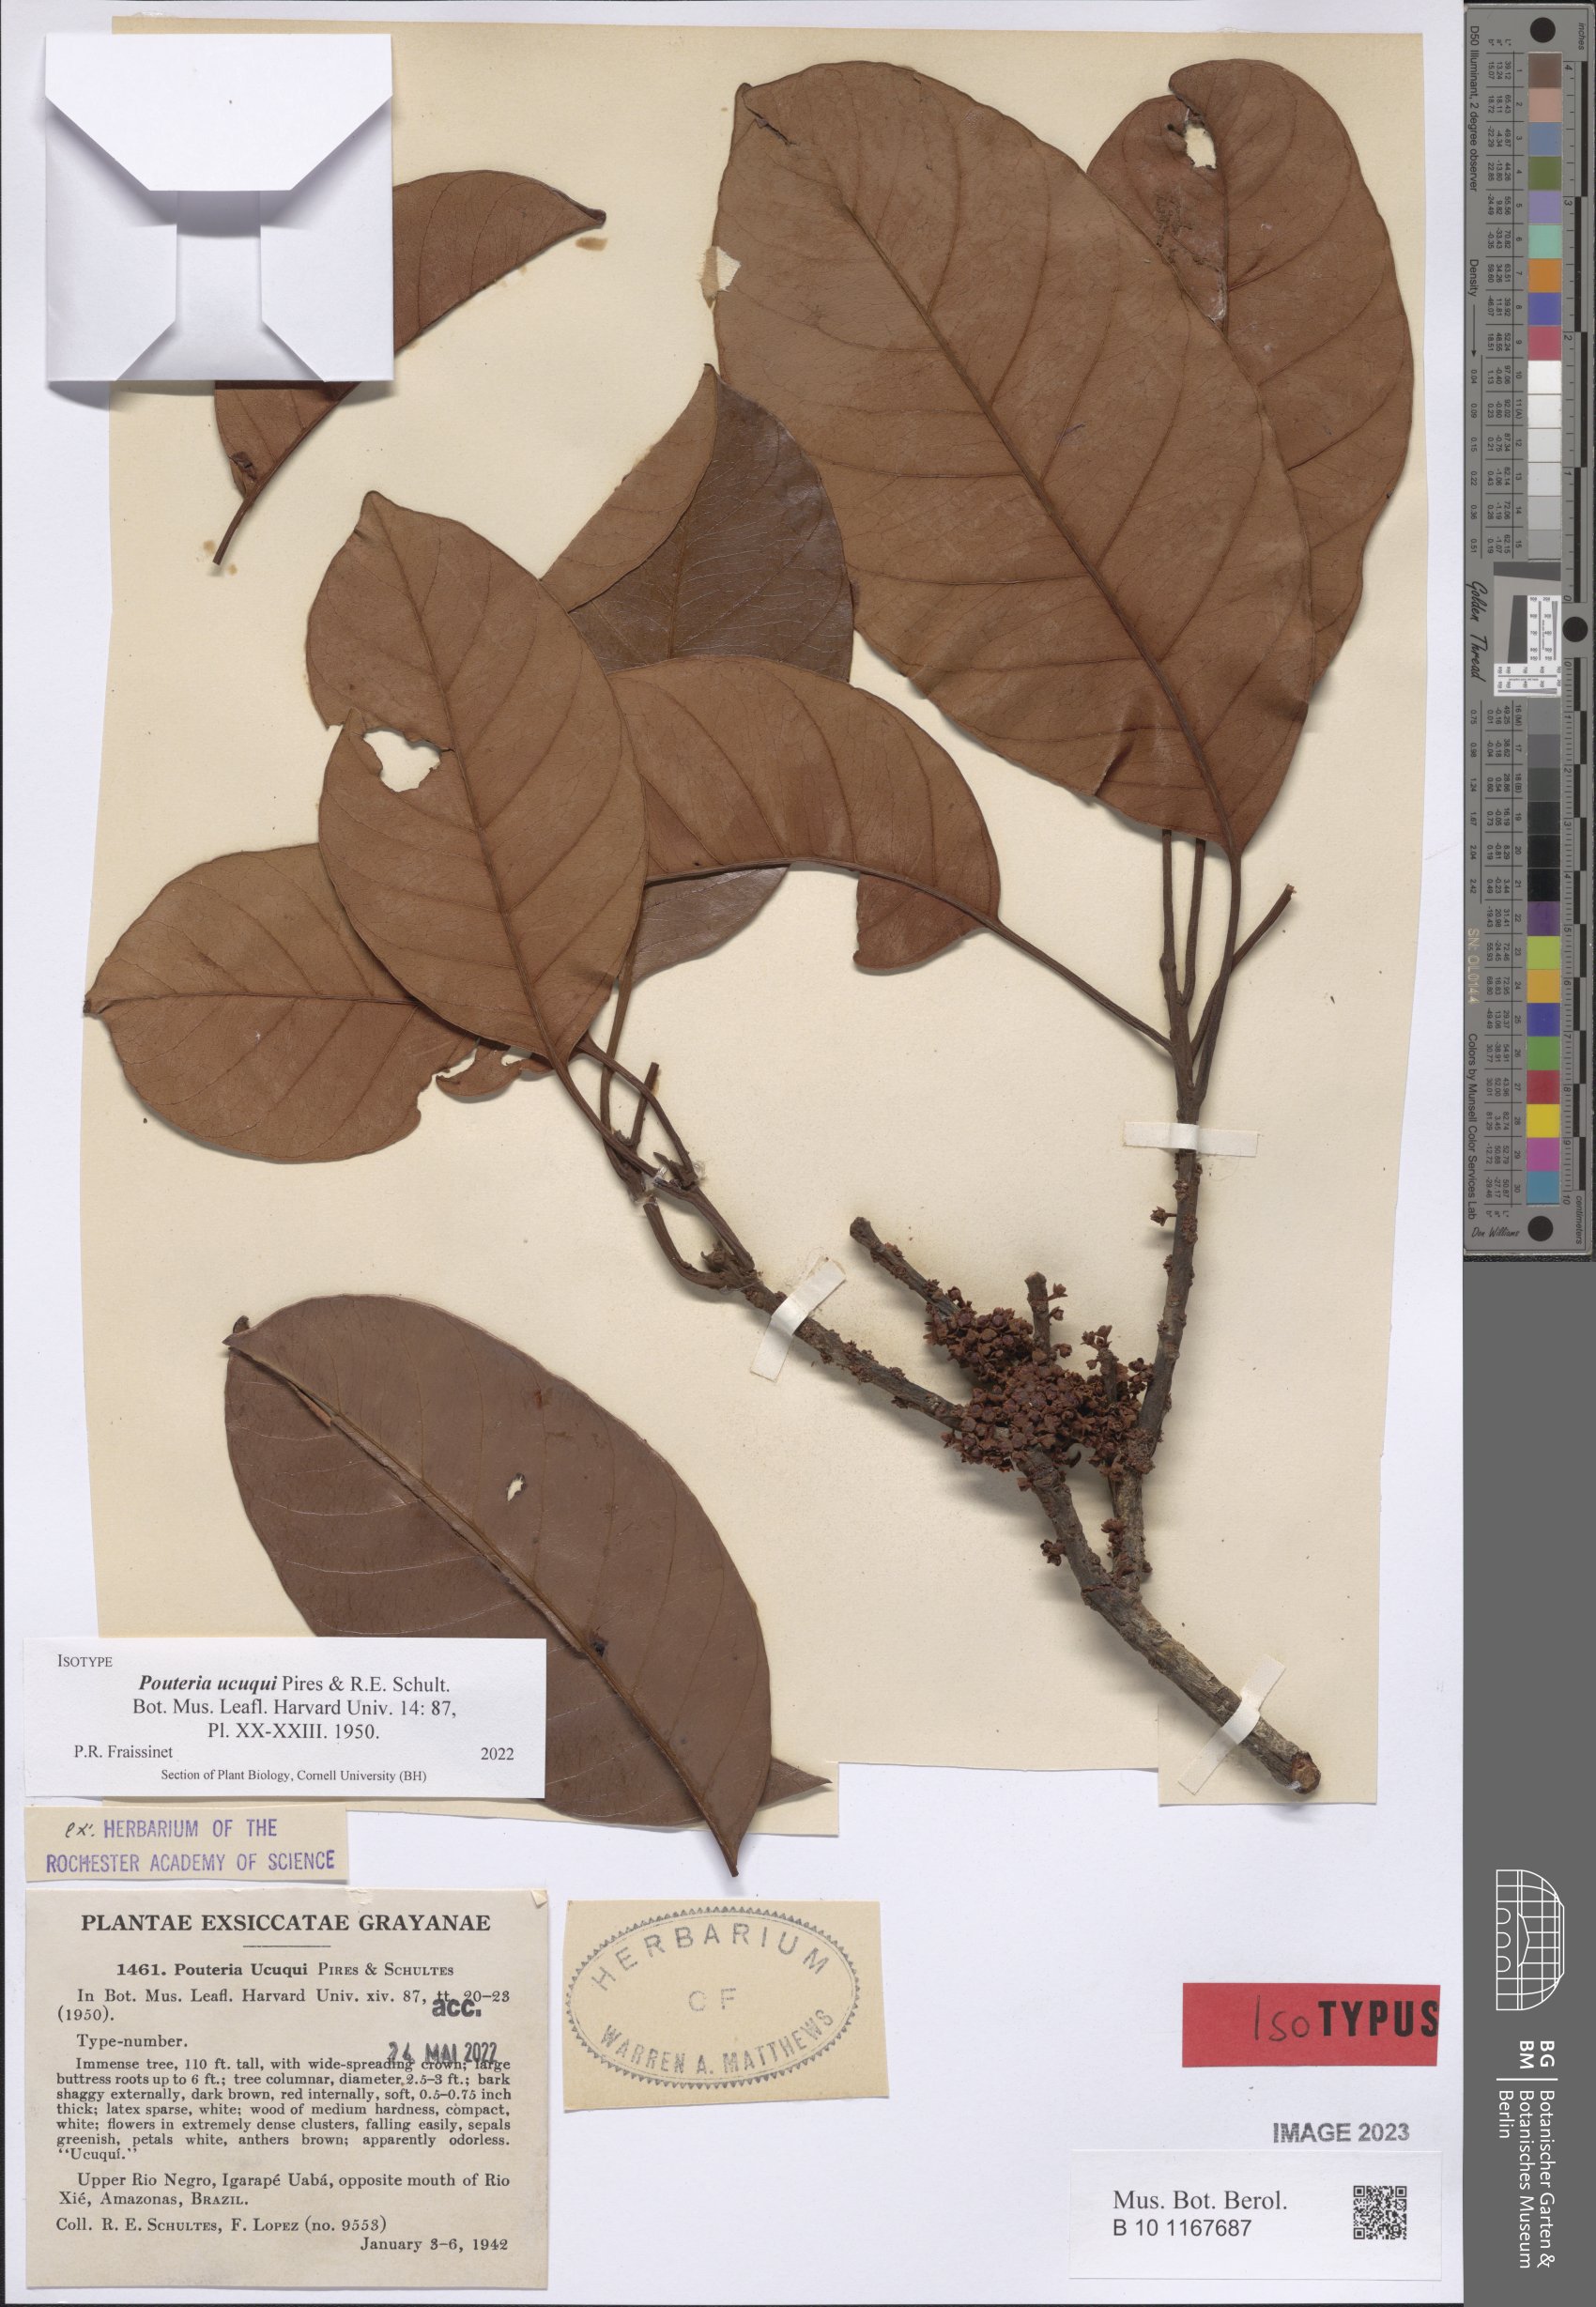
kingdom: Plantae
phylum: Tracheophyta
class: Magnoliopsida
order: Ericales
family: Sapotaceae
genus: Pouteria
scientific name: Pouteria ucuqui
